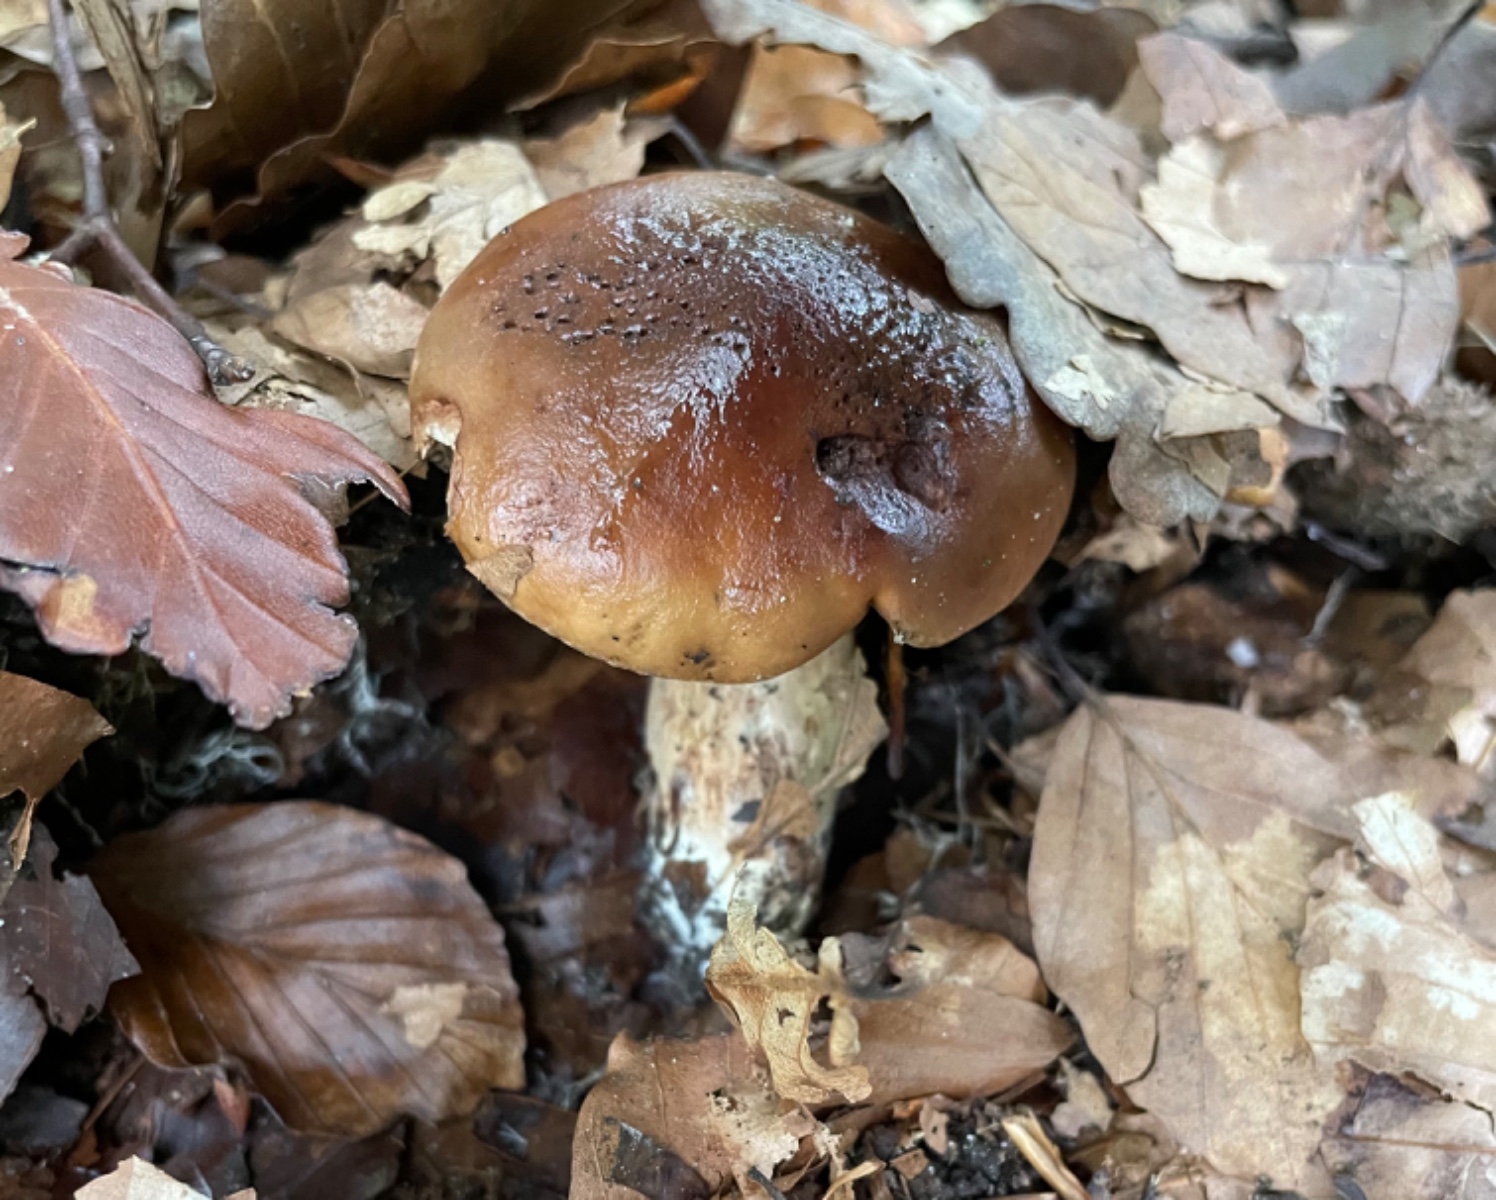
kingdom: Fungi
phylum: Basidiomycota
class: Agaricomycetes
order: Agaricales
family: Tricholomataceae
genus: Tricholoma
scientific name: Tricholoma ustale
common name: sveden ridderhat
